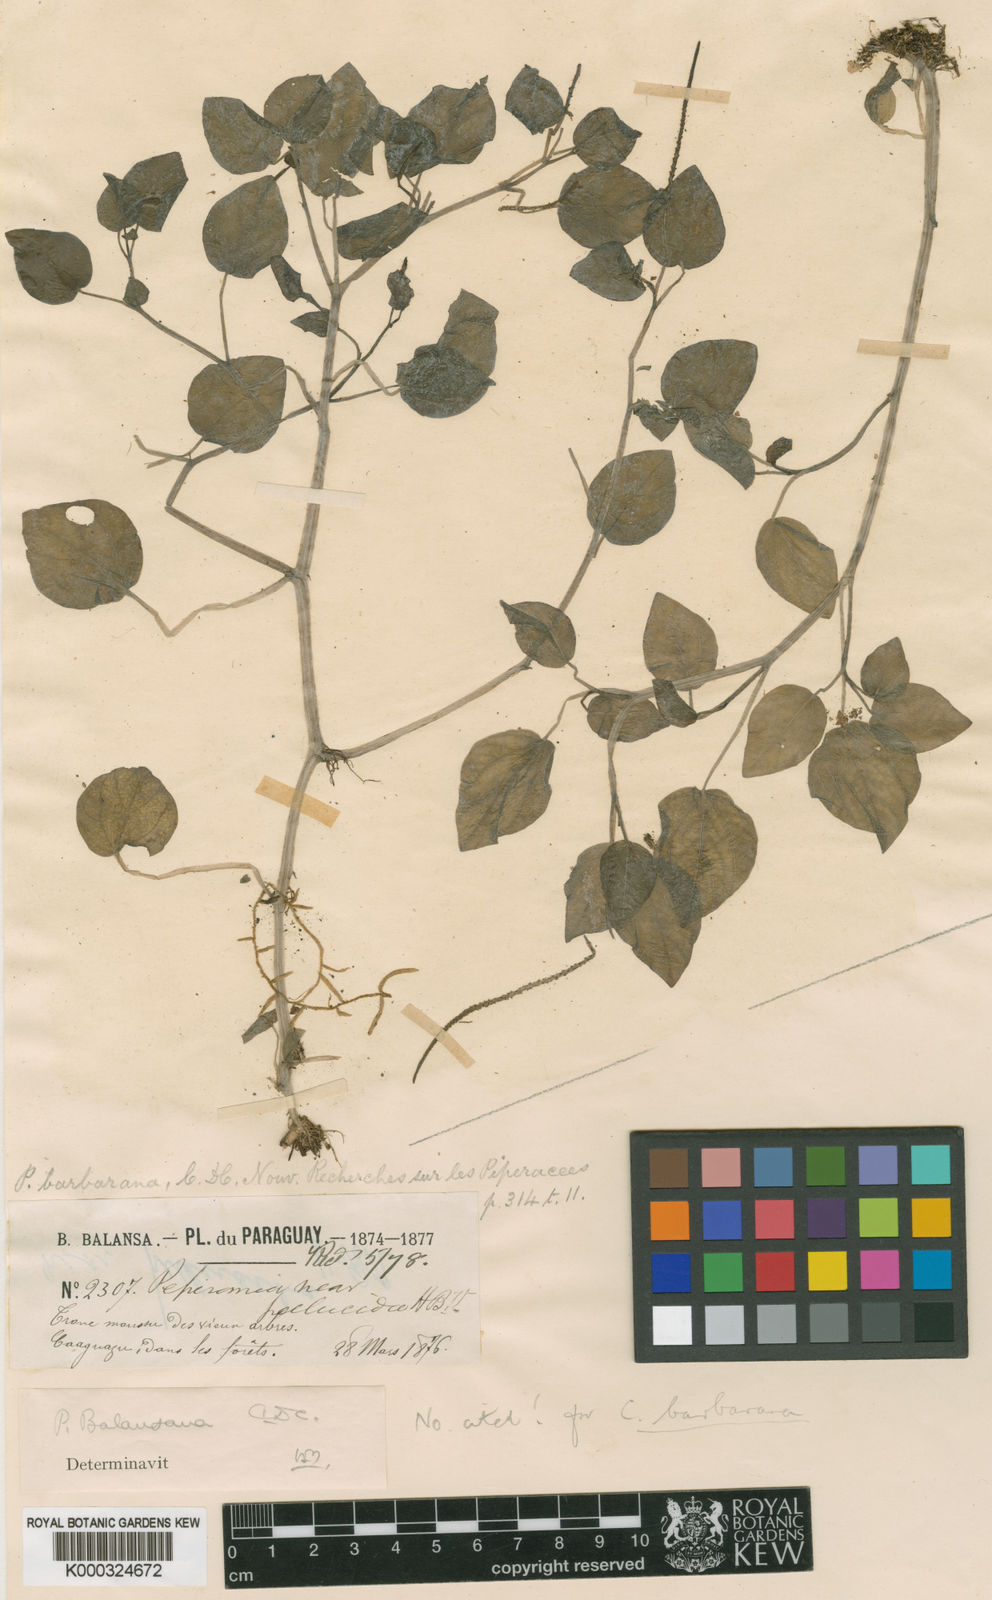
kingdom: Plantae
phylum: Tracheophyta
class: Magnoliopsida
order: Piperales
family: Piperaceae
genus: Peperomia
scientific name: Peperomia barbarana
